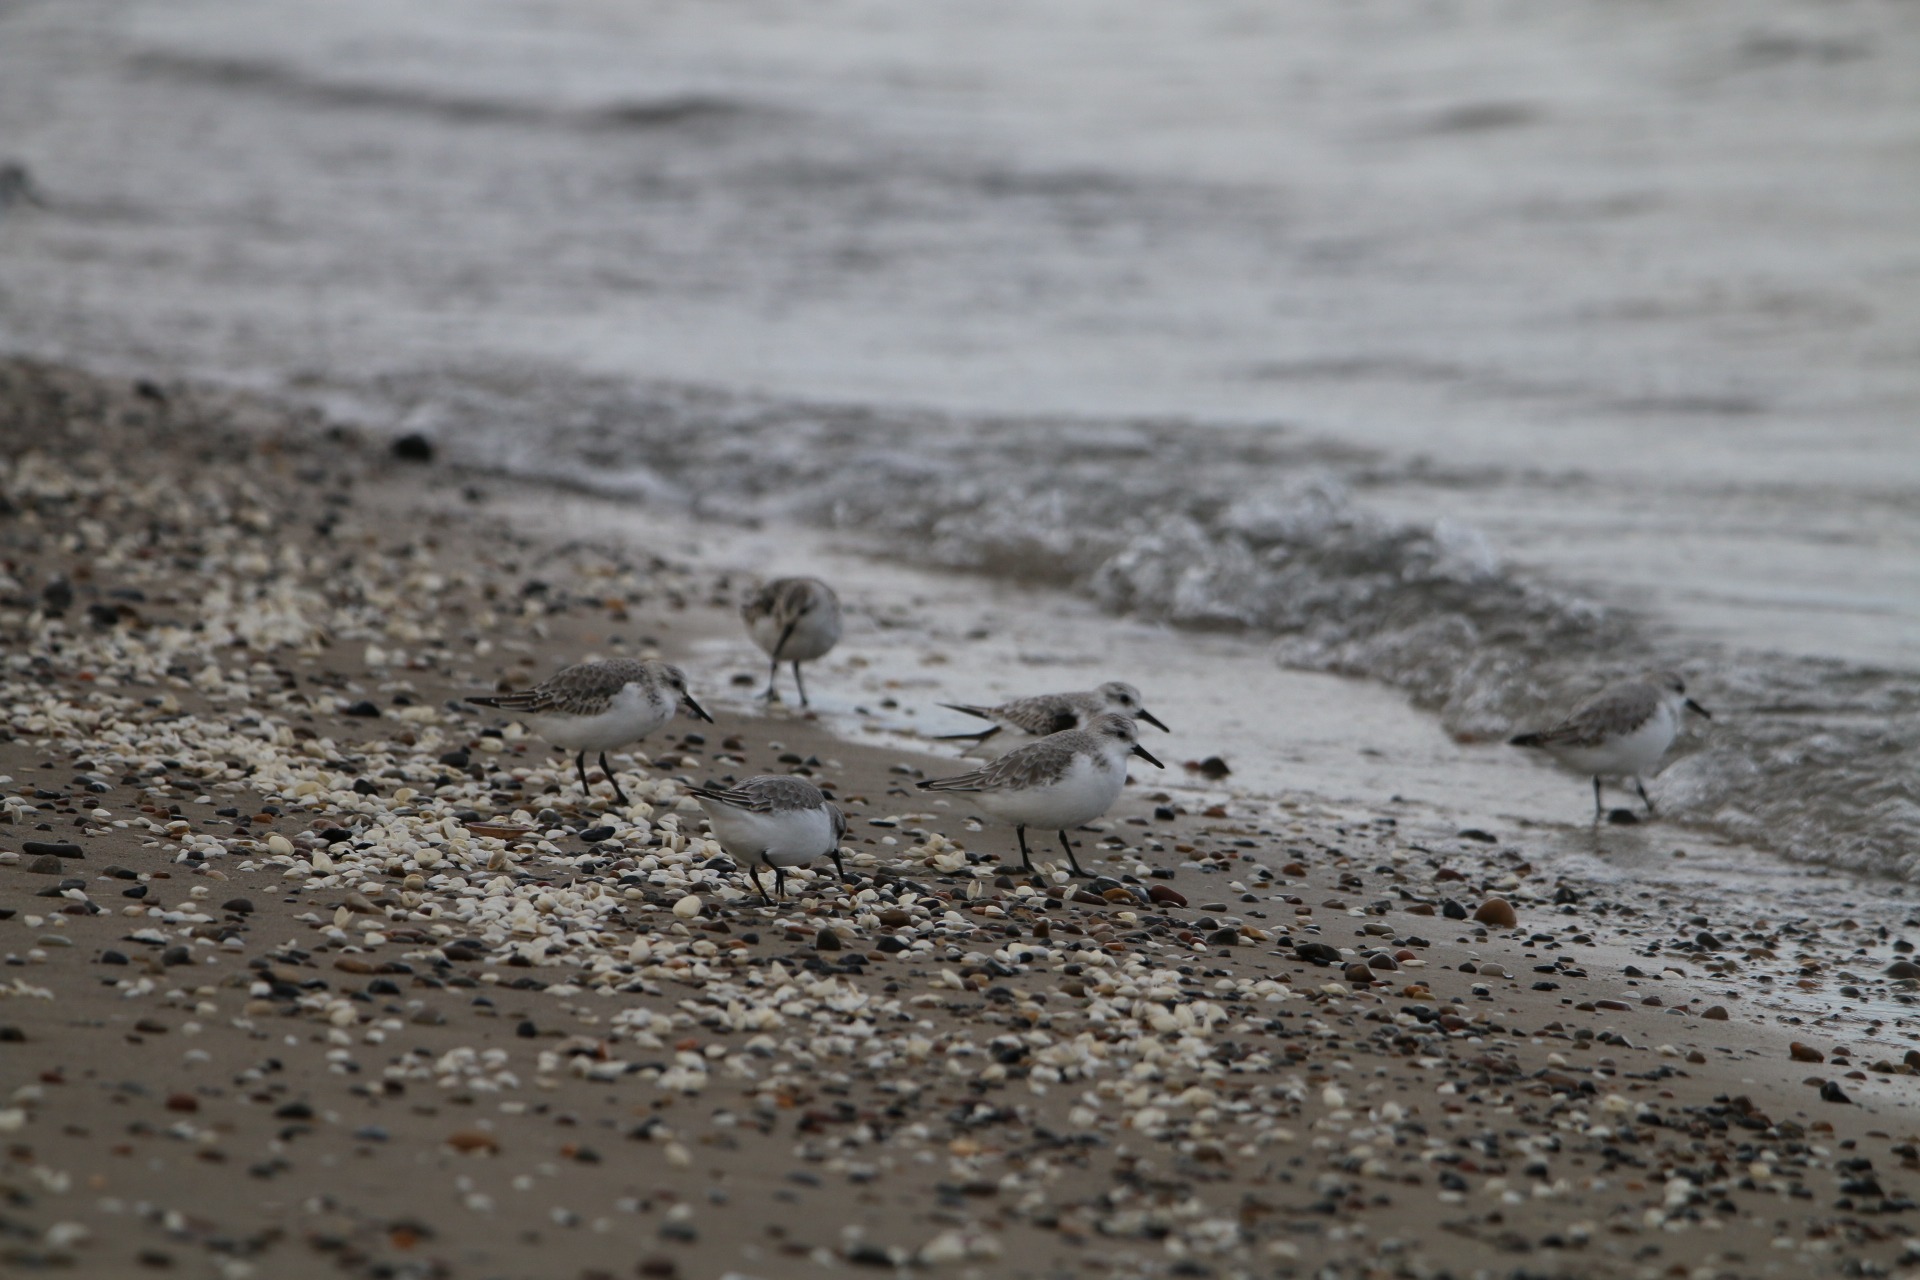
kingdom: Animalia
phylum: Chordata
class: Aves
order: Charadriiformes
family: Scolopacidae
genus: Calidris
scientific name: Calidris alba
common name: Sandløber
